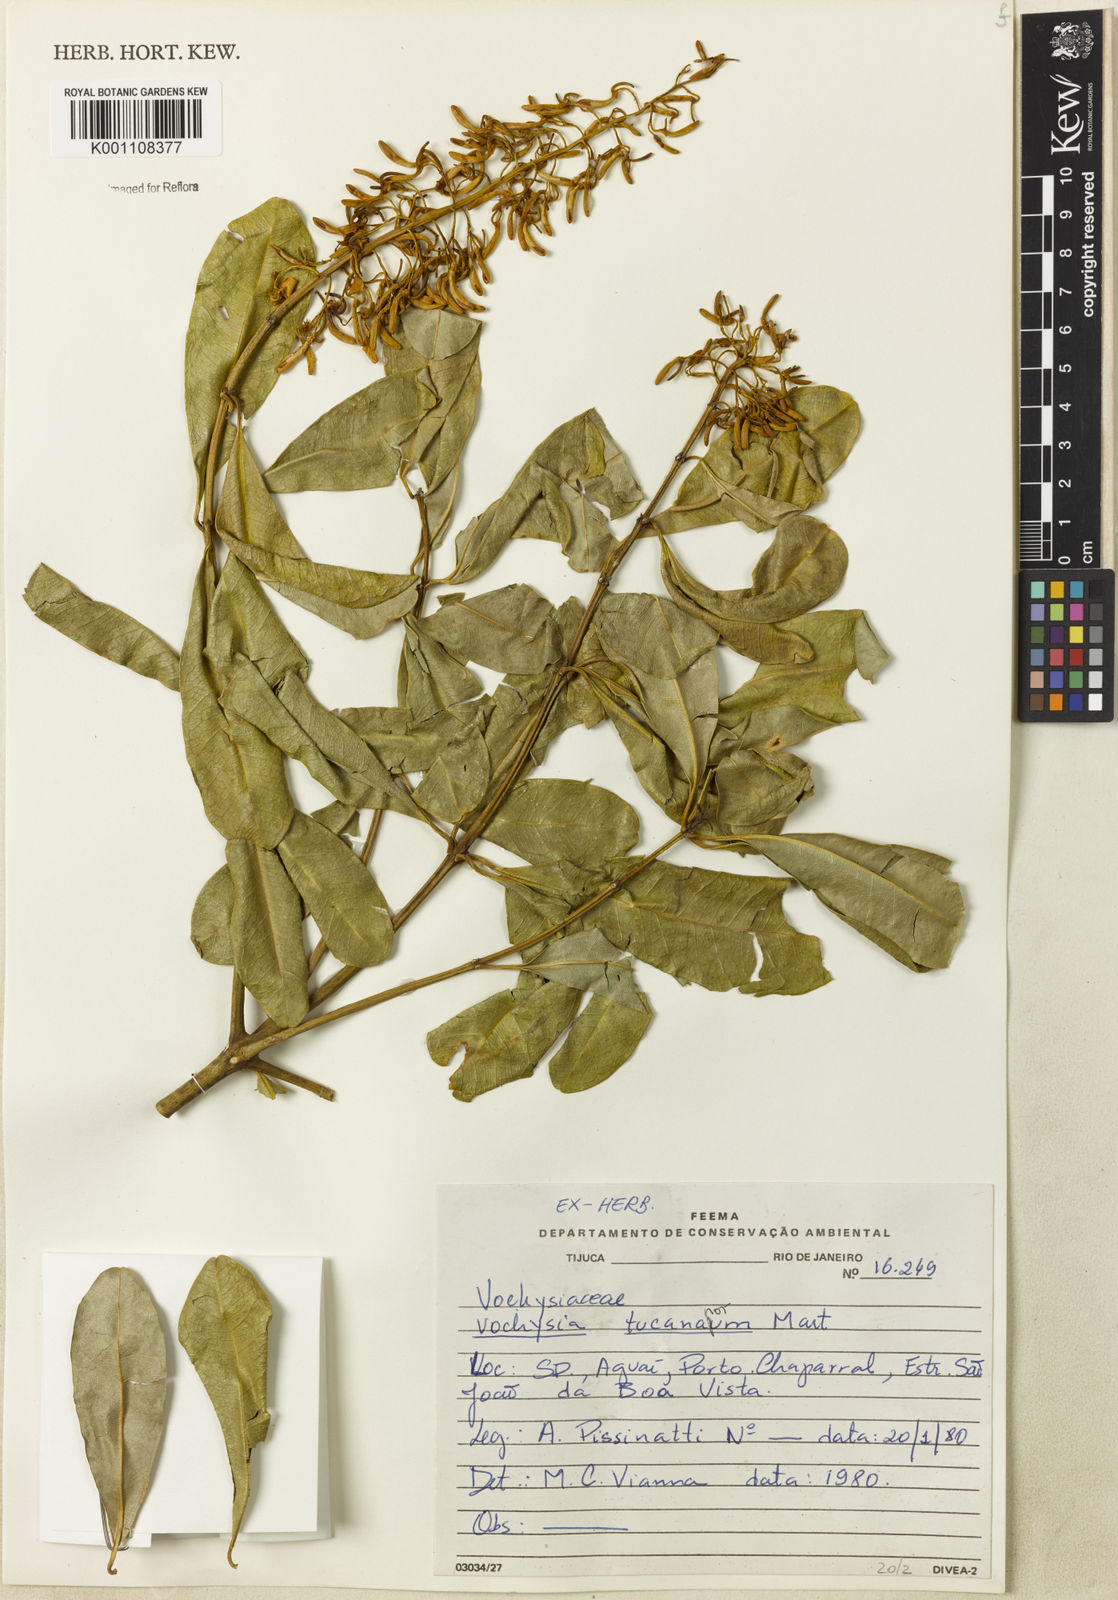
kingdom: Plantae
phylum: Tracheophyta
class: Magnoliopsida
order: Myrtales
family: Vochysiaceae
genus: Vochysia
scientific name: Vochysia tucanorum
